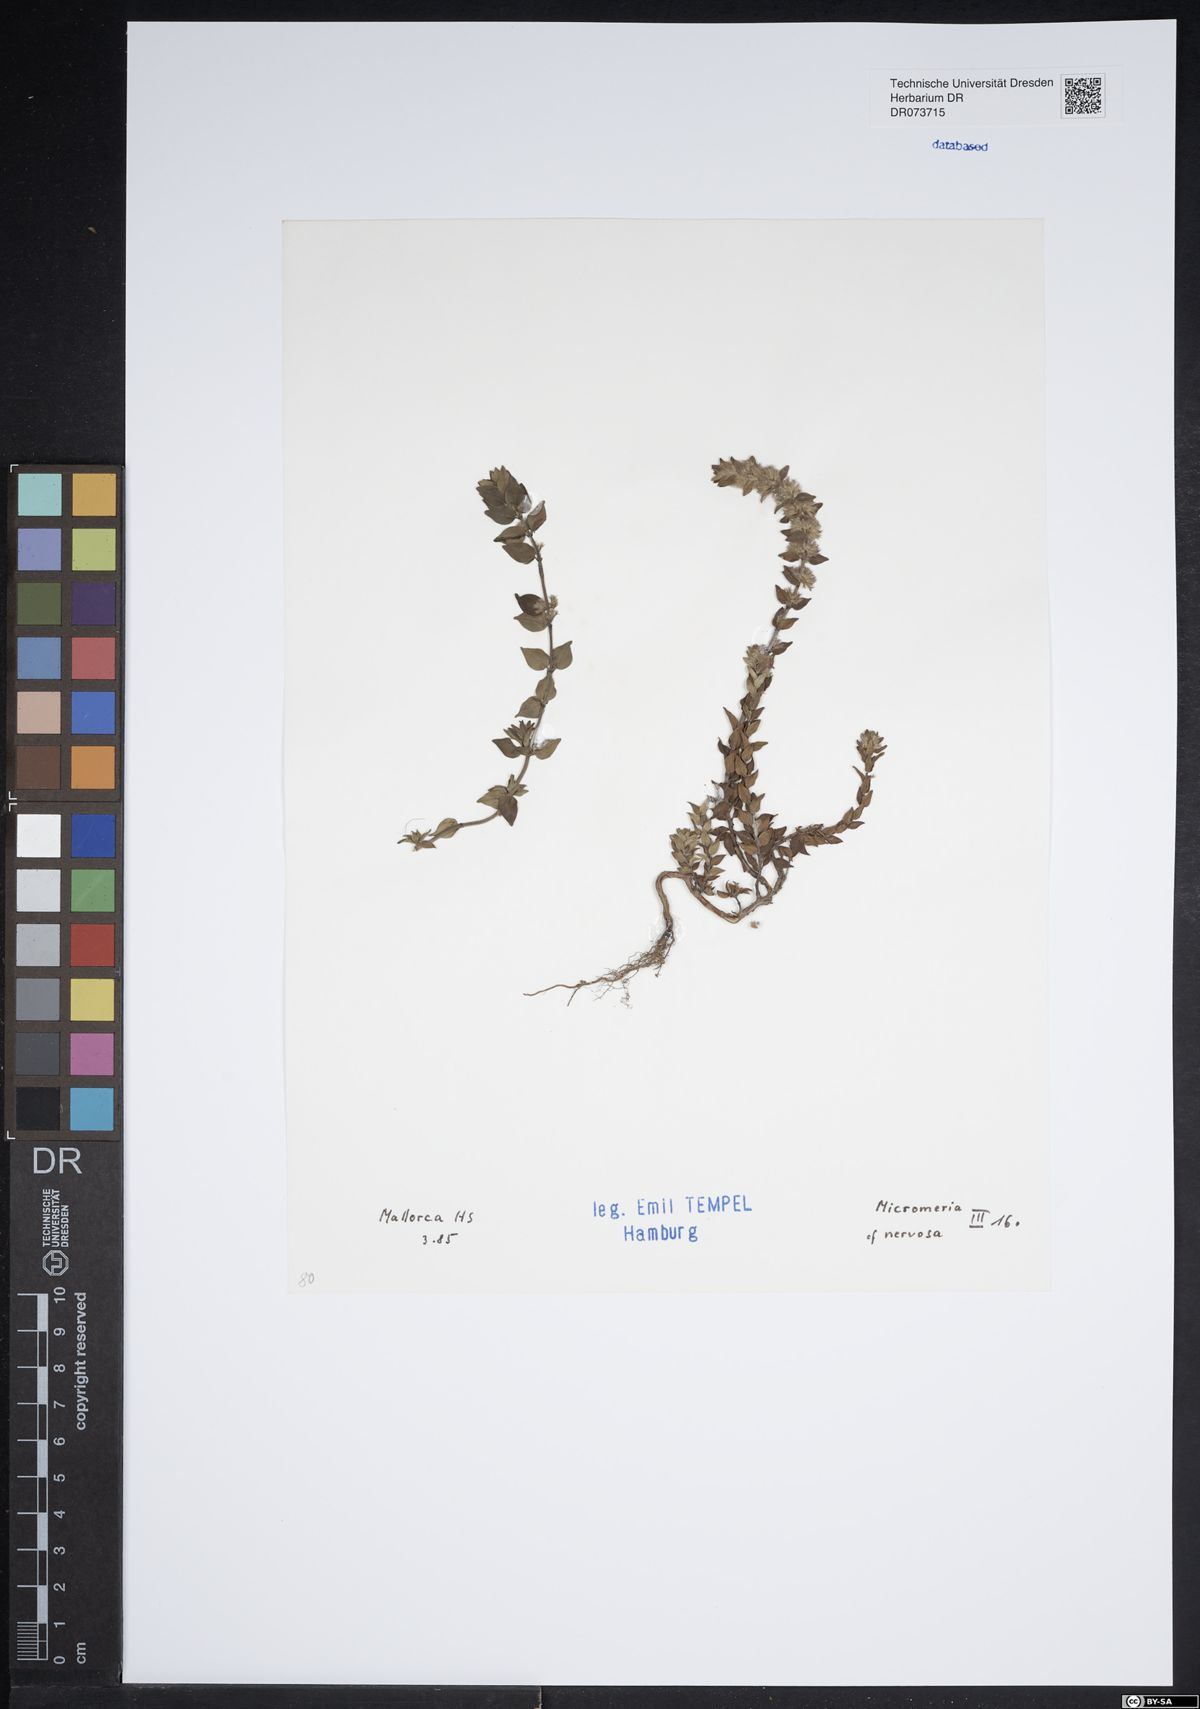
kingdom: Plantae
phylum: Tracheophyta
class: Magnoliopsida
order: Lamiales
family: Lamiaceae
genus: Micromeria
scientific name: Micromeria nervosa
